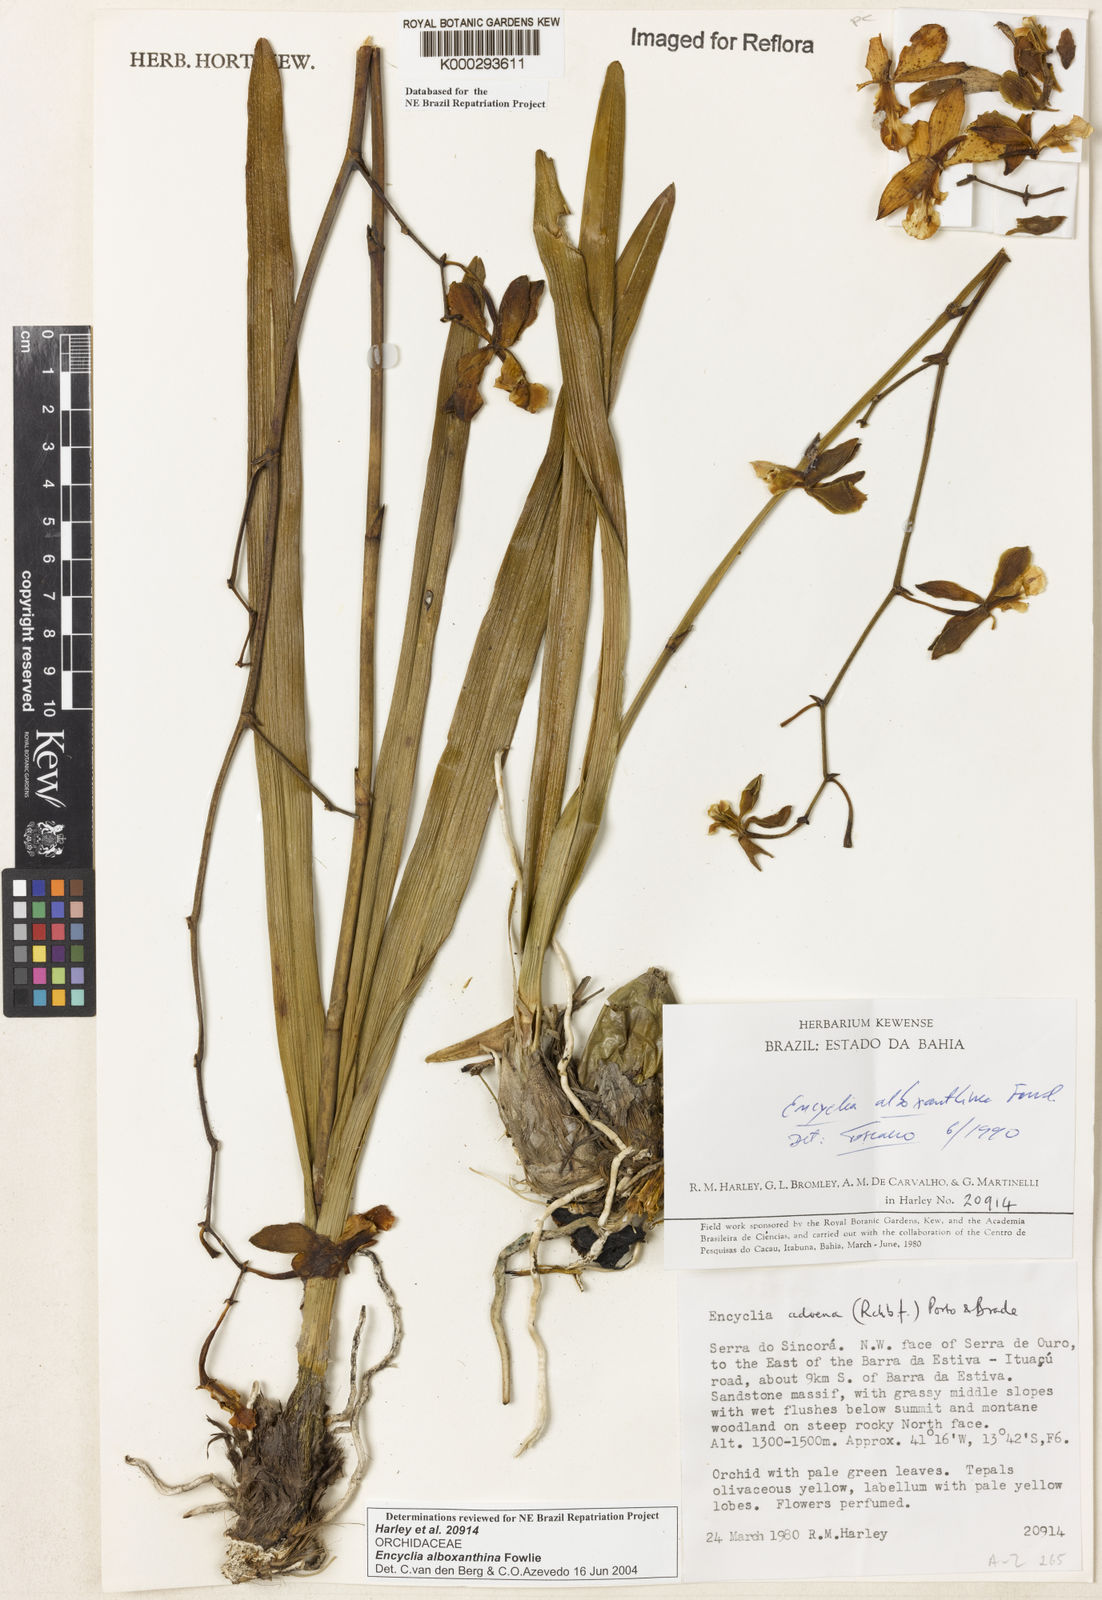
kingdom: Plantae
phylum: Tracheophyta
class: Liliopsida
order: Asparagales
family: Orchidaceae
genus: Encyclia
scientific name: Encyclia alboxanthina
